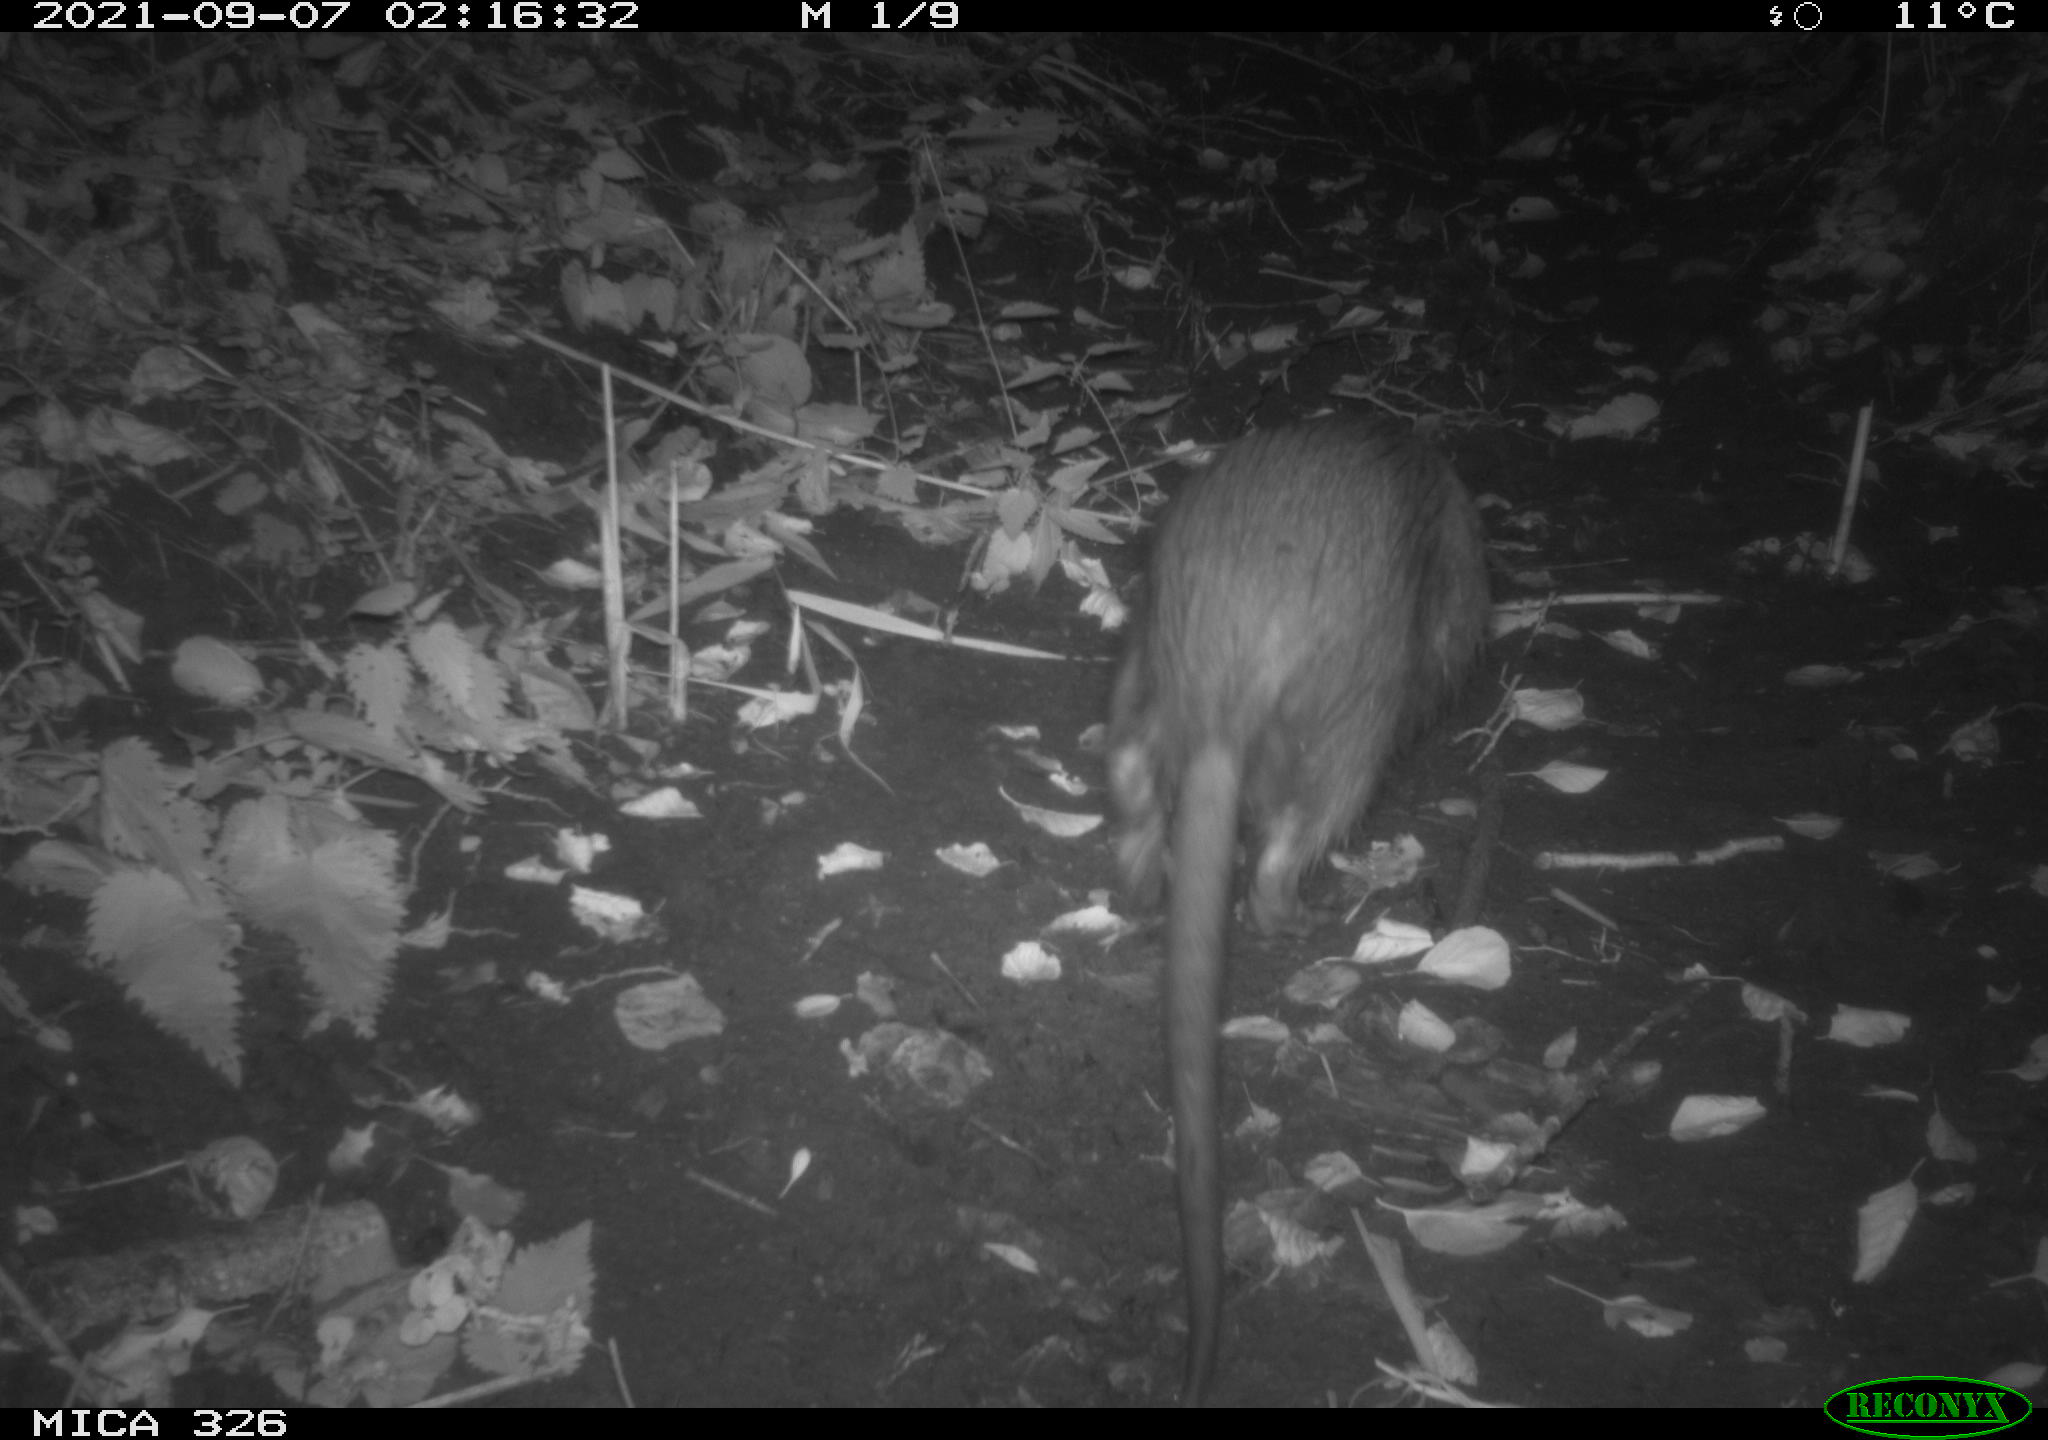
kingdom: Animalia
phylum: Chordata
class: Mammalia
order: Rodentia
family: Myocastoridae
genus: Myocastor
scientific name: Myocastor coypus
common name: Coypu
